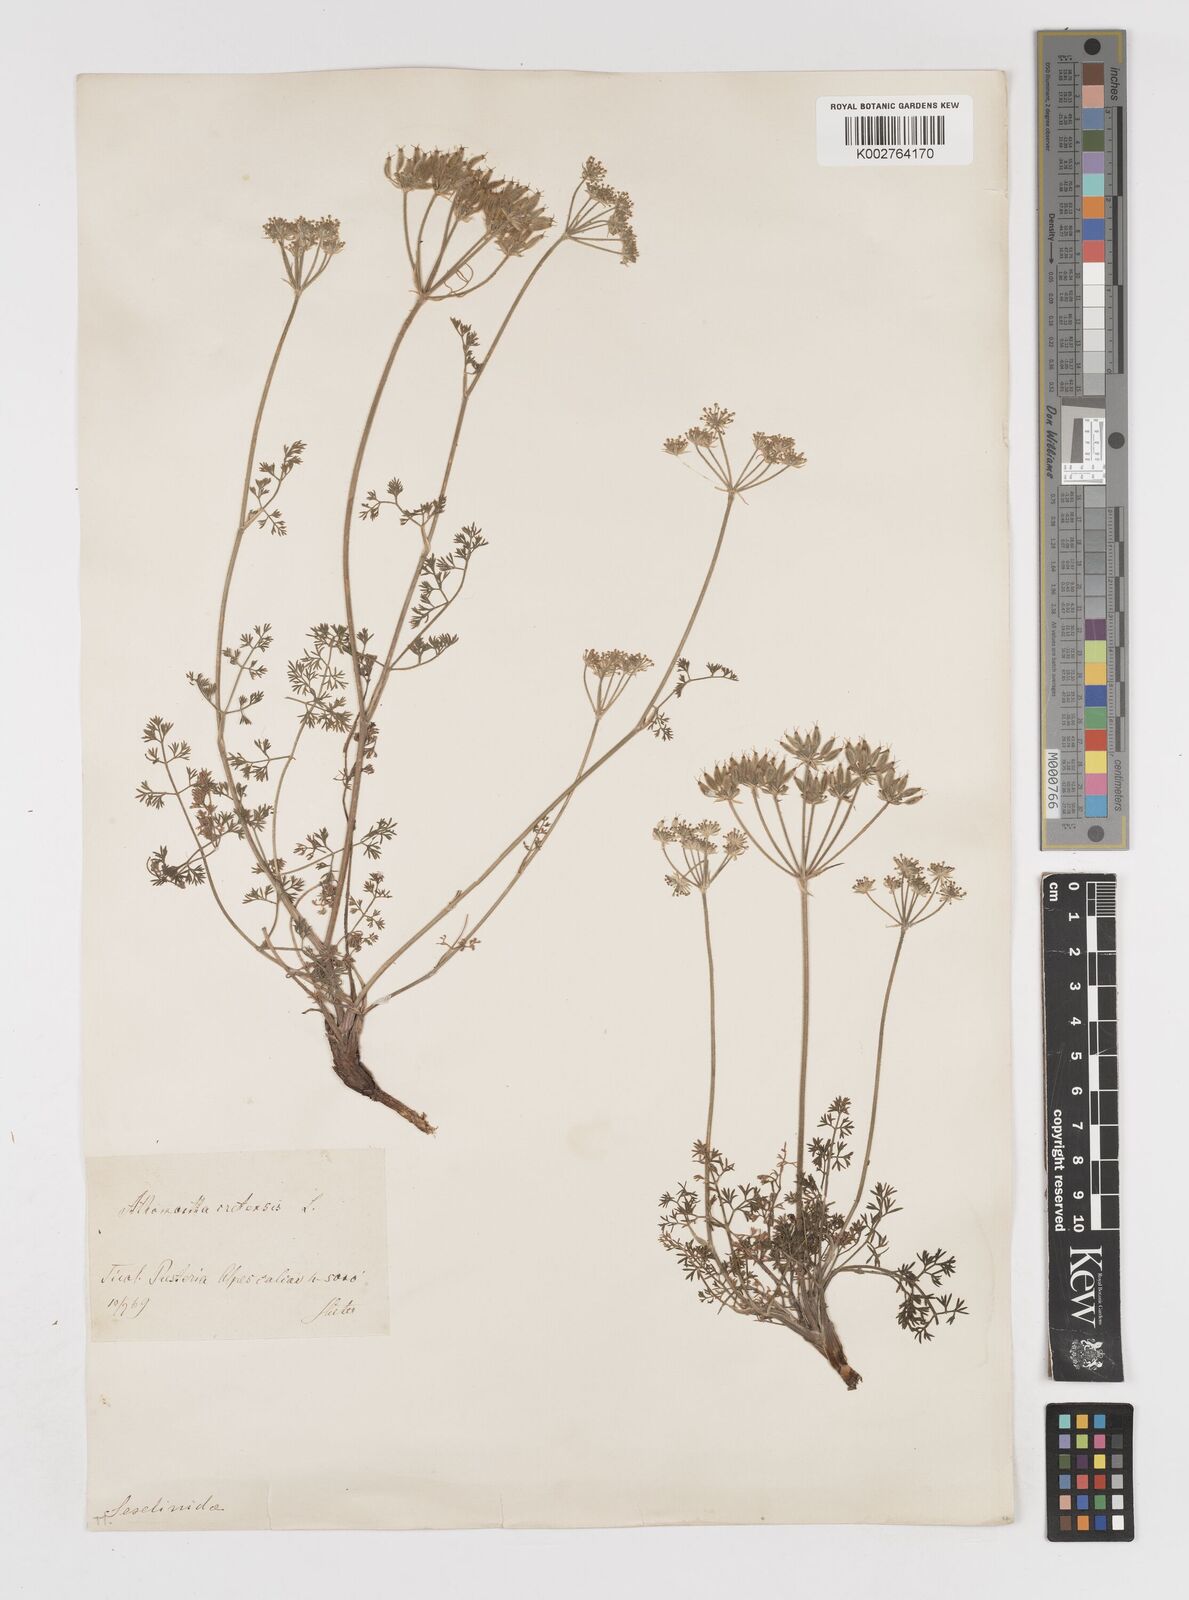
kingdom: Plantae
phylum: Tracheophyta
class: Magnoliopsida
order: Apiales
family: Apiaceae
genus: Athamanta
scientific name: Athamanta cretensis
